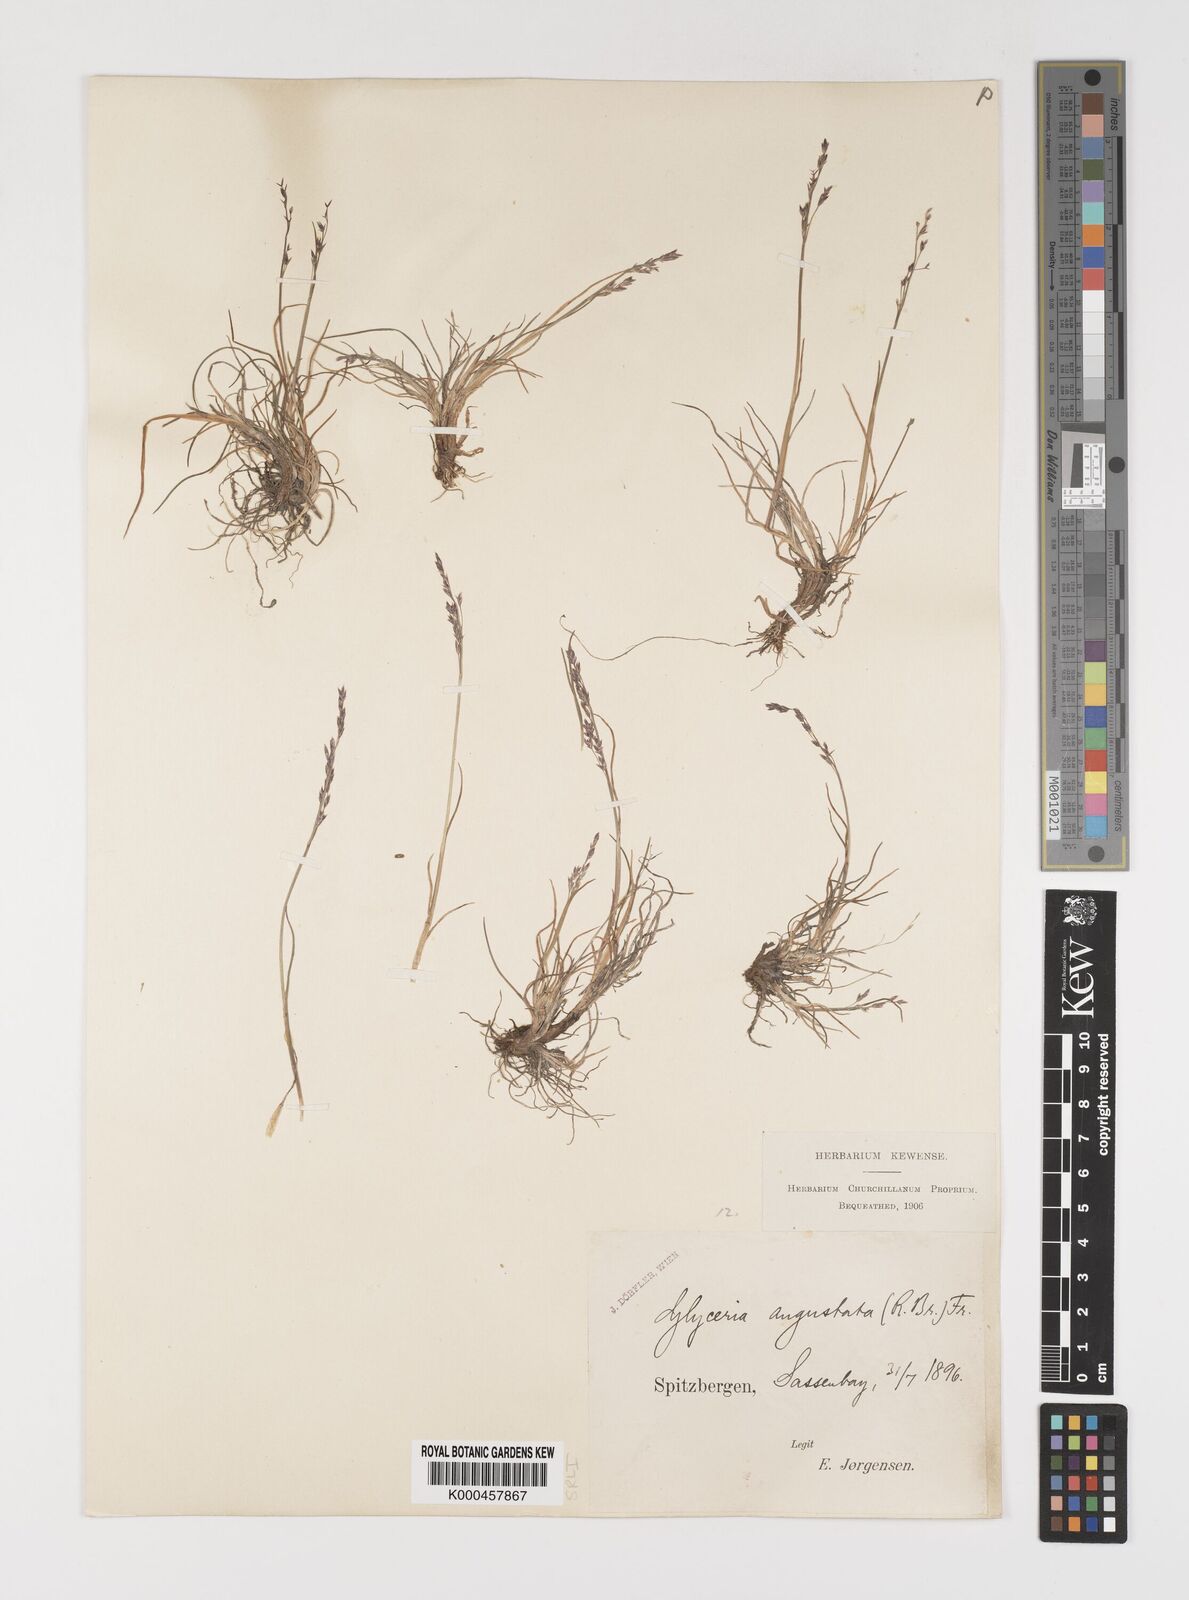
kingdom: Plantae
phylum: Tracheophyta
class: Liliopsida
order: Poales
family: Poaceae
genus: Puccinellia
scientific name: Puccinellia angustata
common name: Narrow alkaligrass
